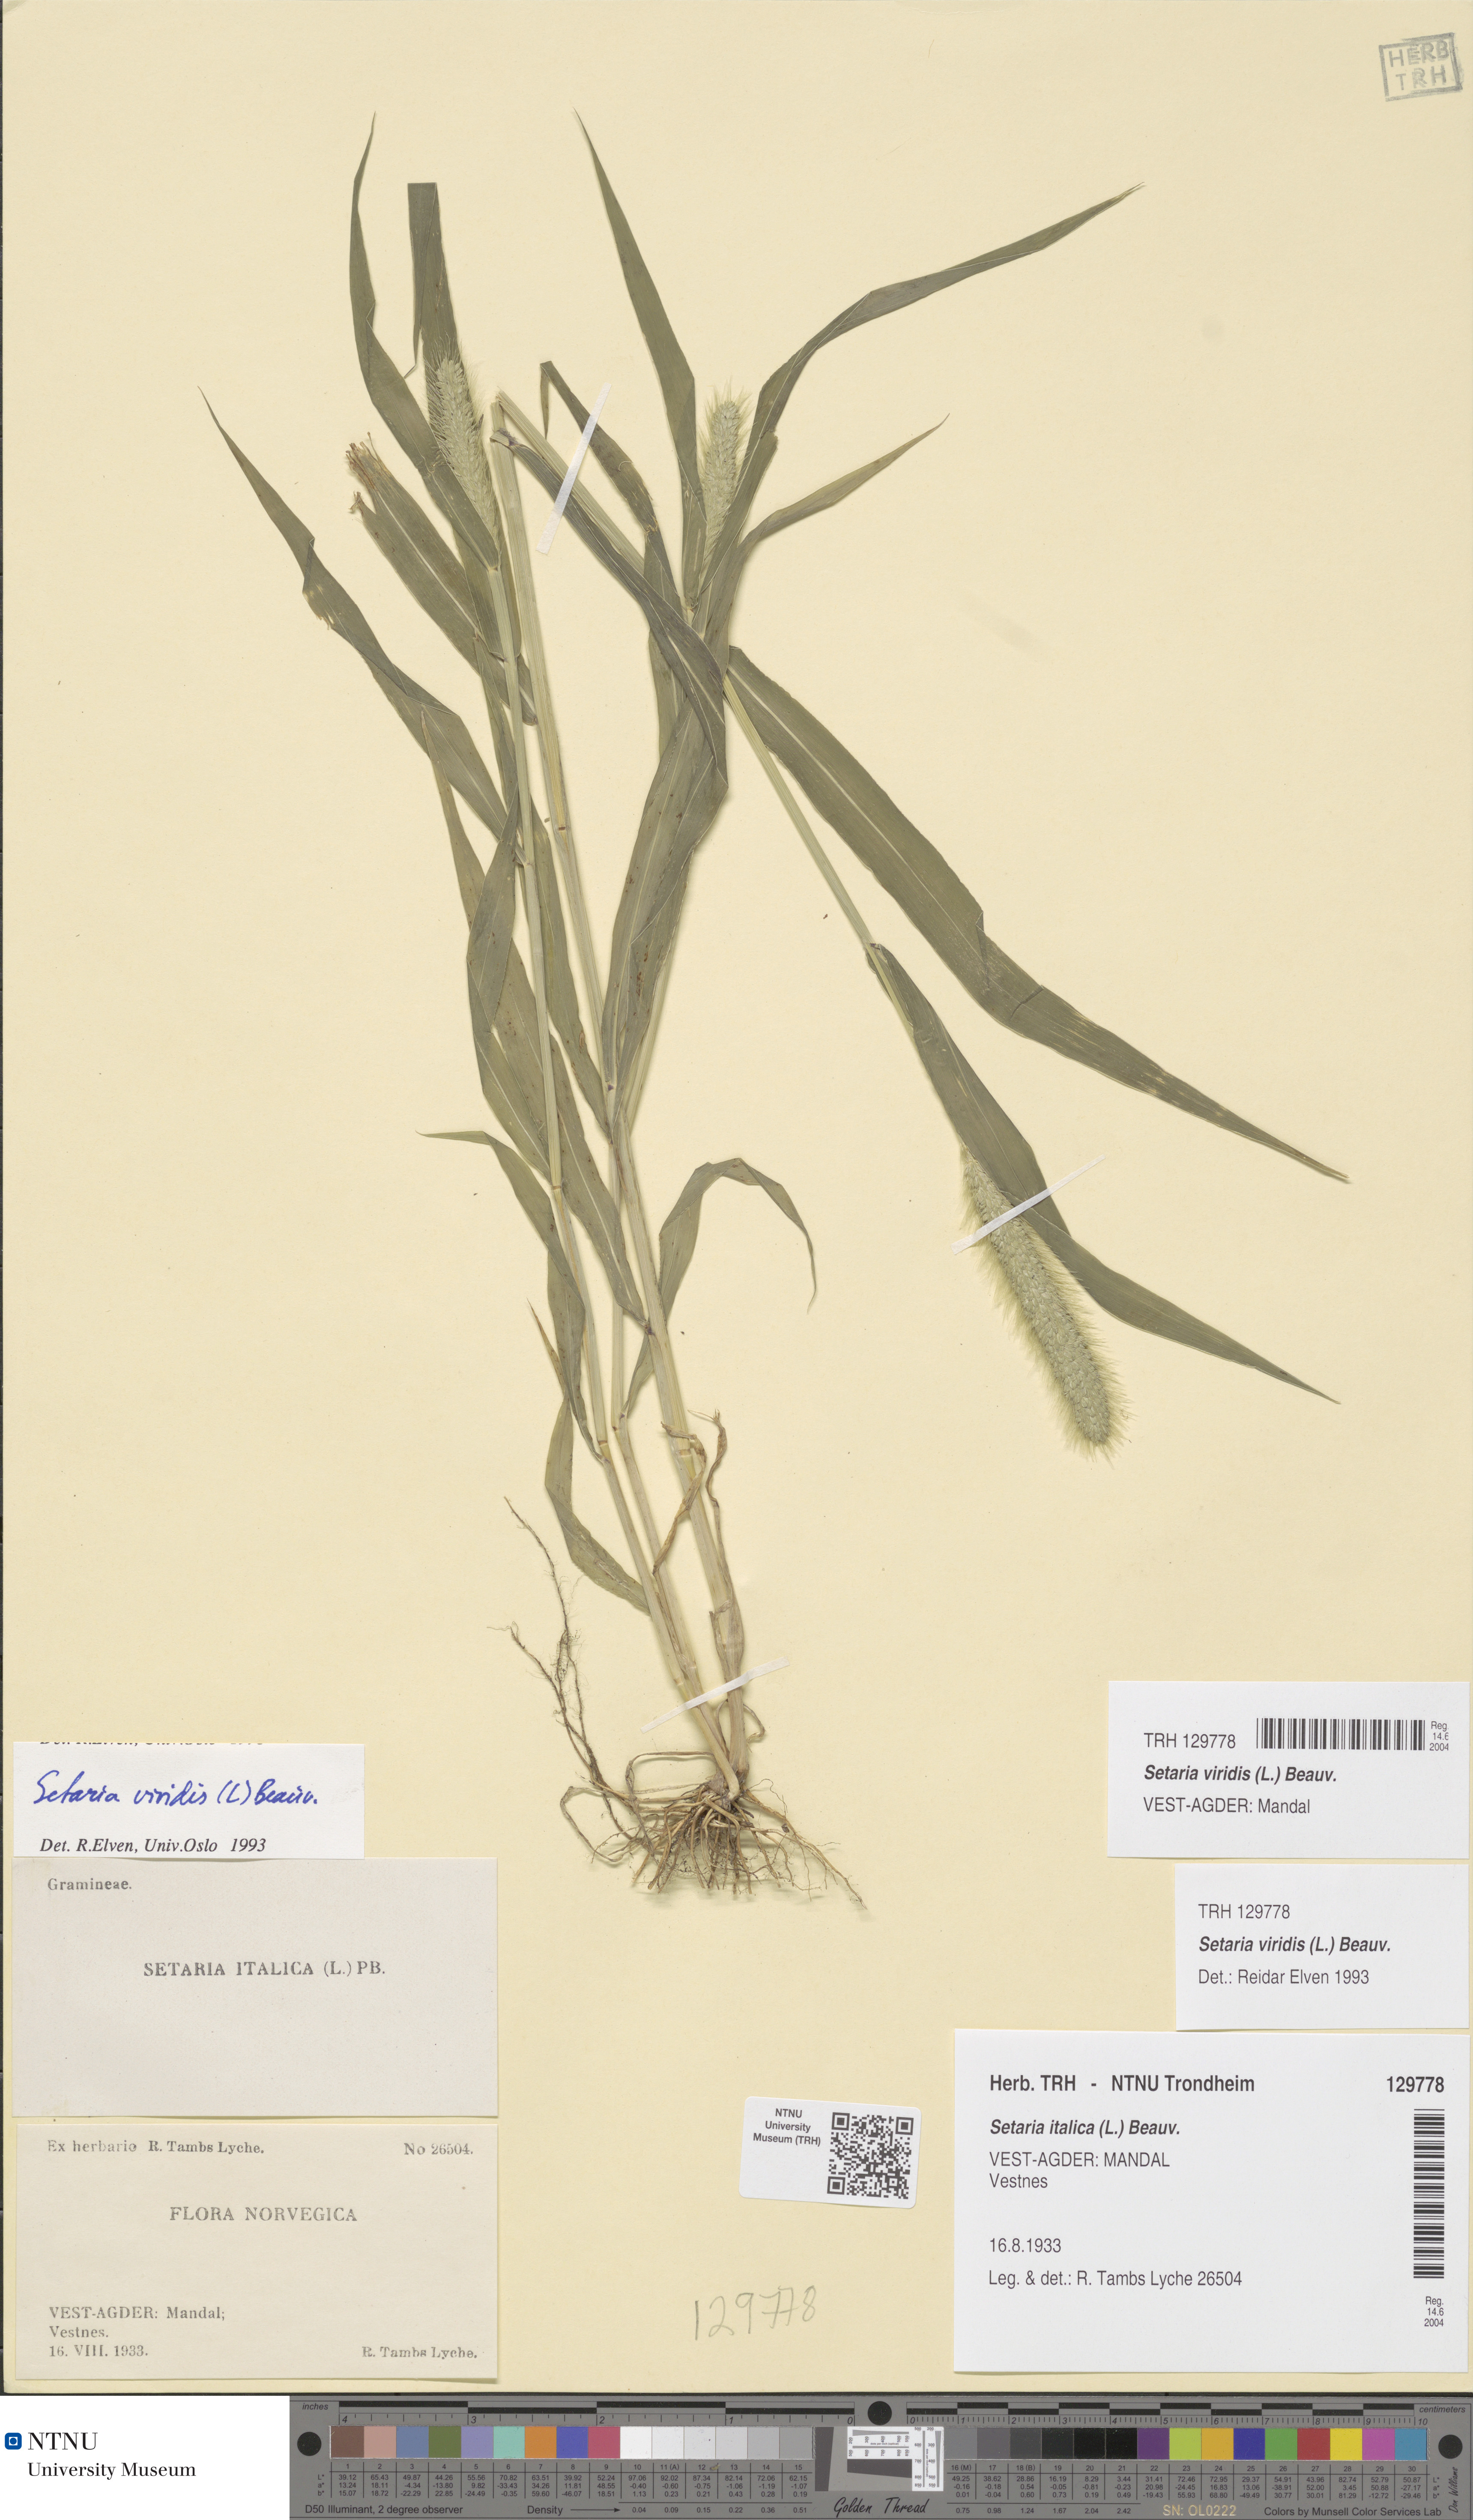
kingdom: Plantae
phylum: Tracheophyta
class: Liliopsida
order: Poales
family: Poaceae
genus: Setaria
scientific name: Setaria viridis
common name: Green bristlegrass
